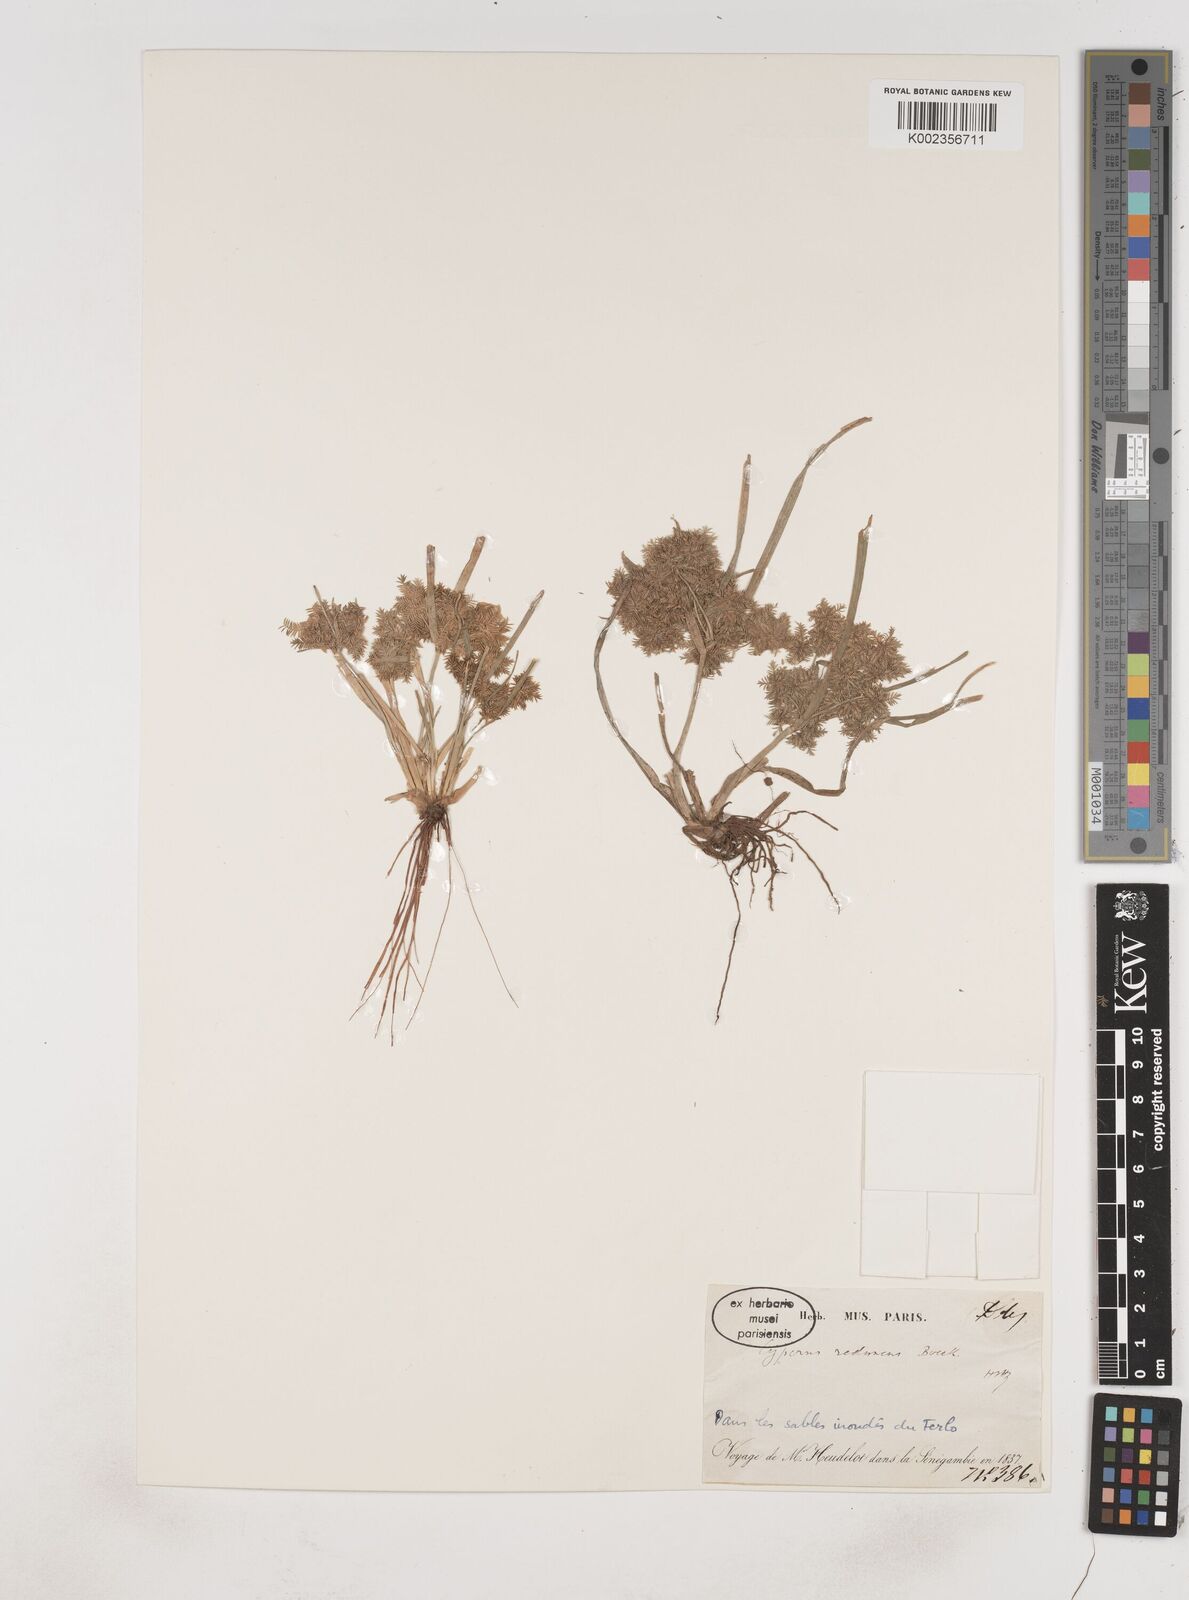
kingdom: Plantae
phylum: Tracheophyta
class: Liliopsida
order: Poales
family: Cyperaceae
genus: Cyperus
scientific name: Cyperus reduncus
